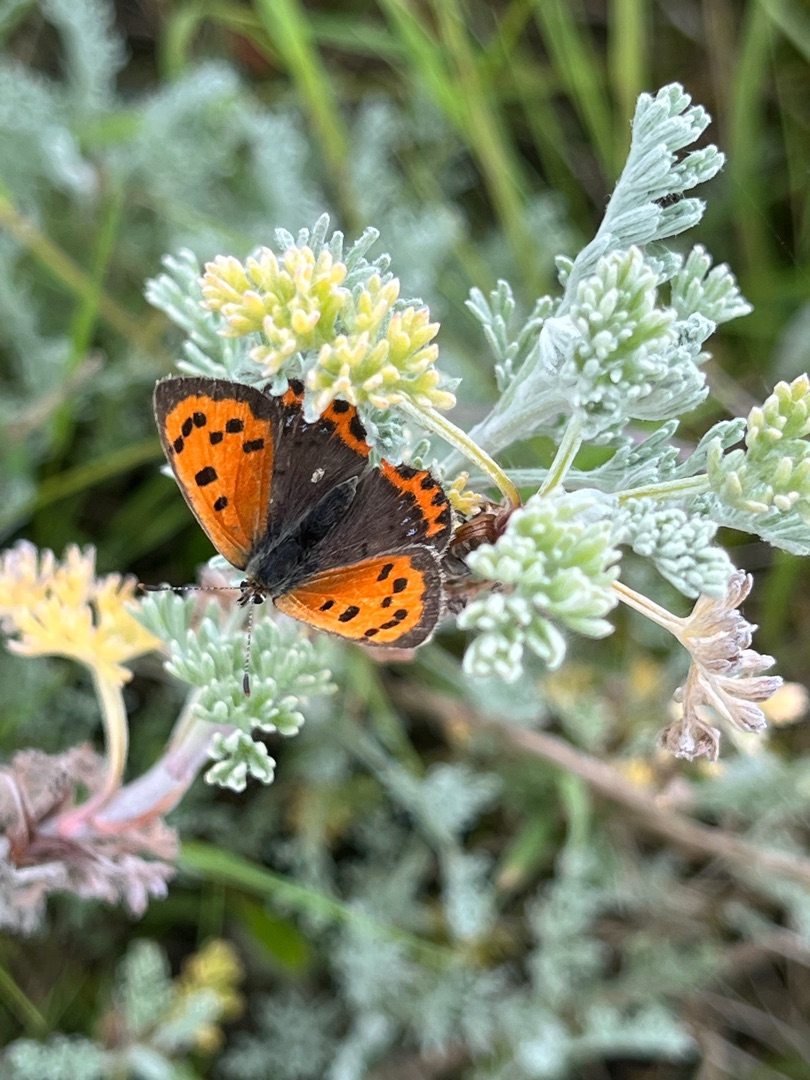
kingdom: Animalia
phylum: Arthropoda
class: Insecta
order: Lepidoptera
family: Lycaenidae
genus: Lycaena
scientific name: Lycaena phlaeas
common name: Lille ildfugl
